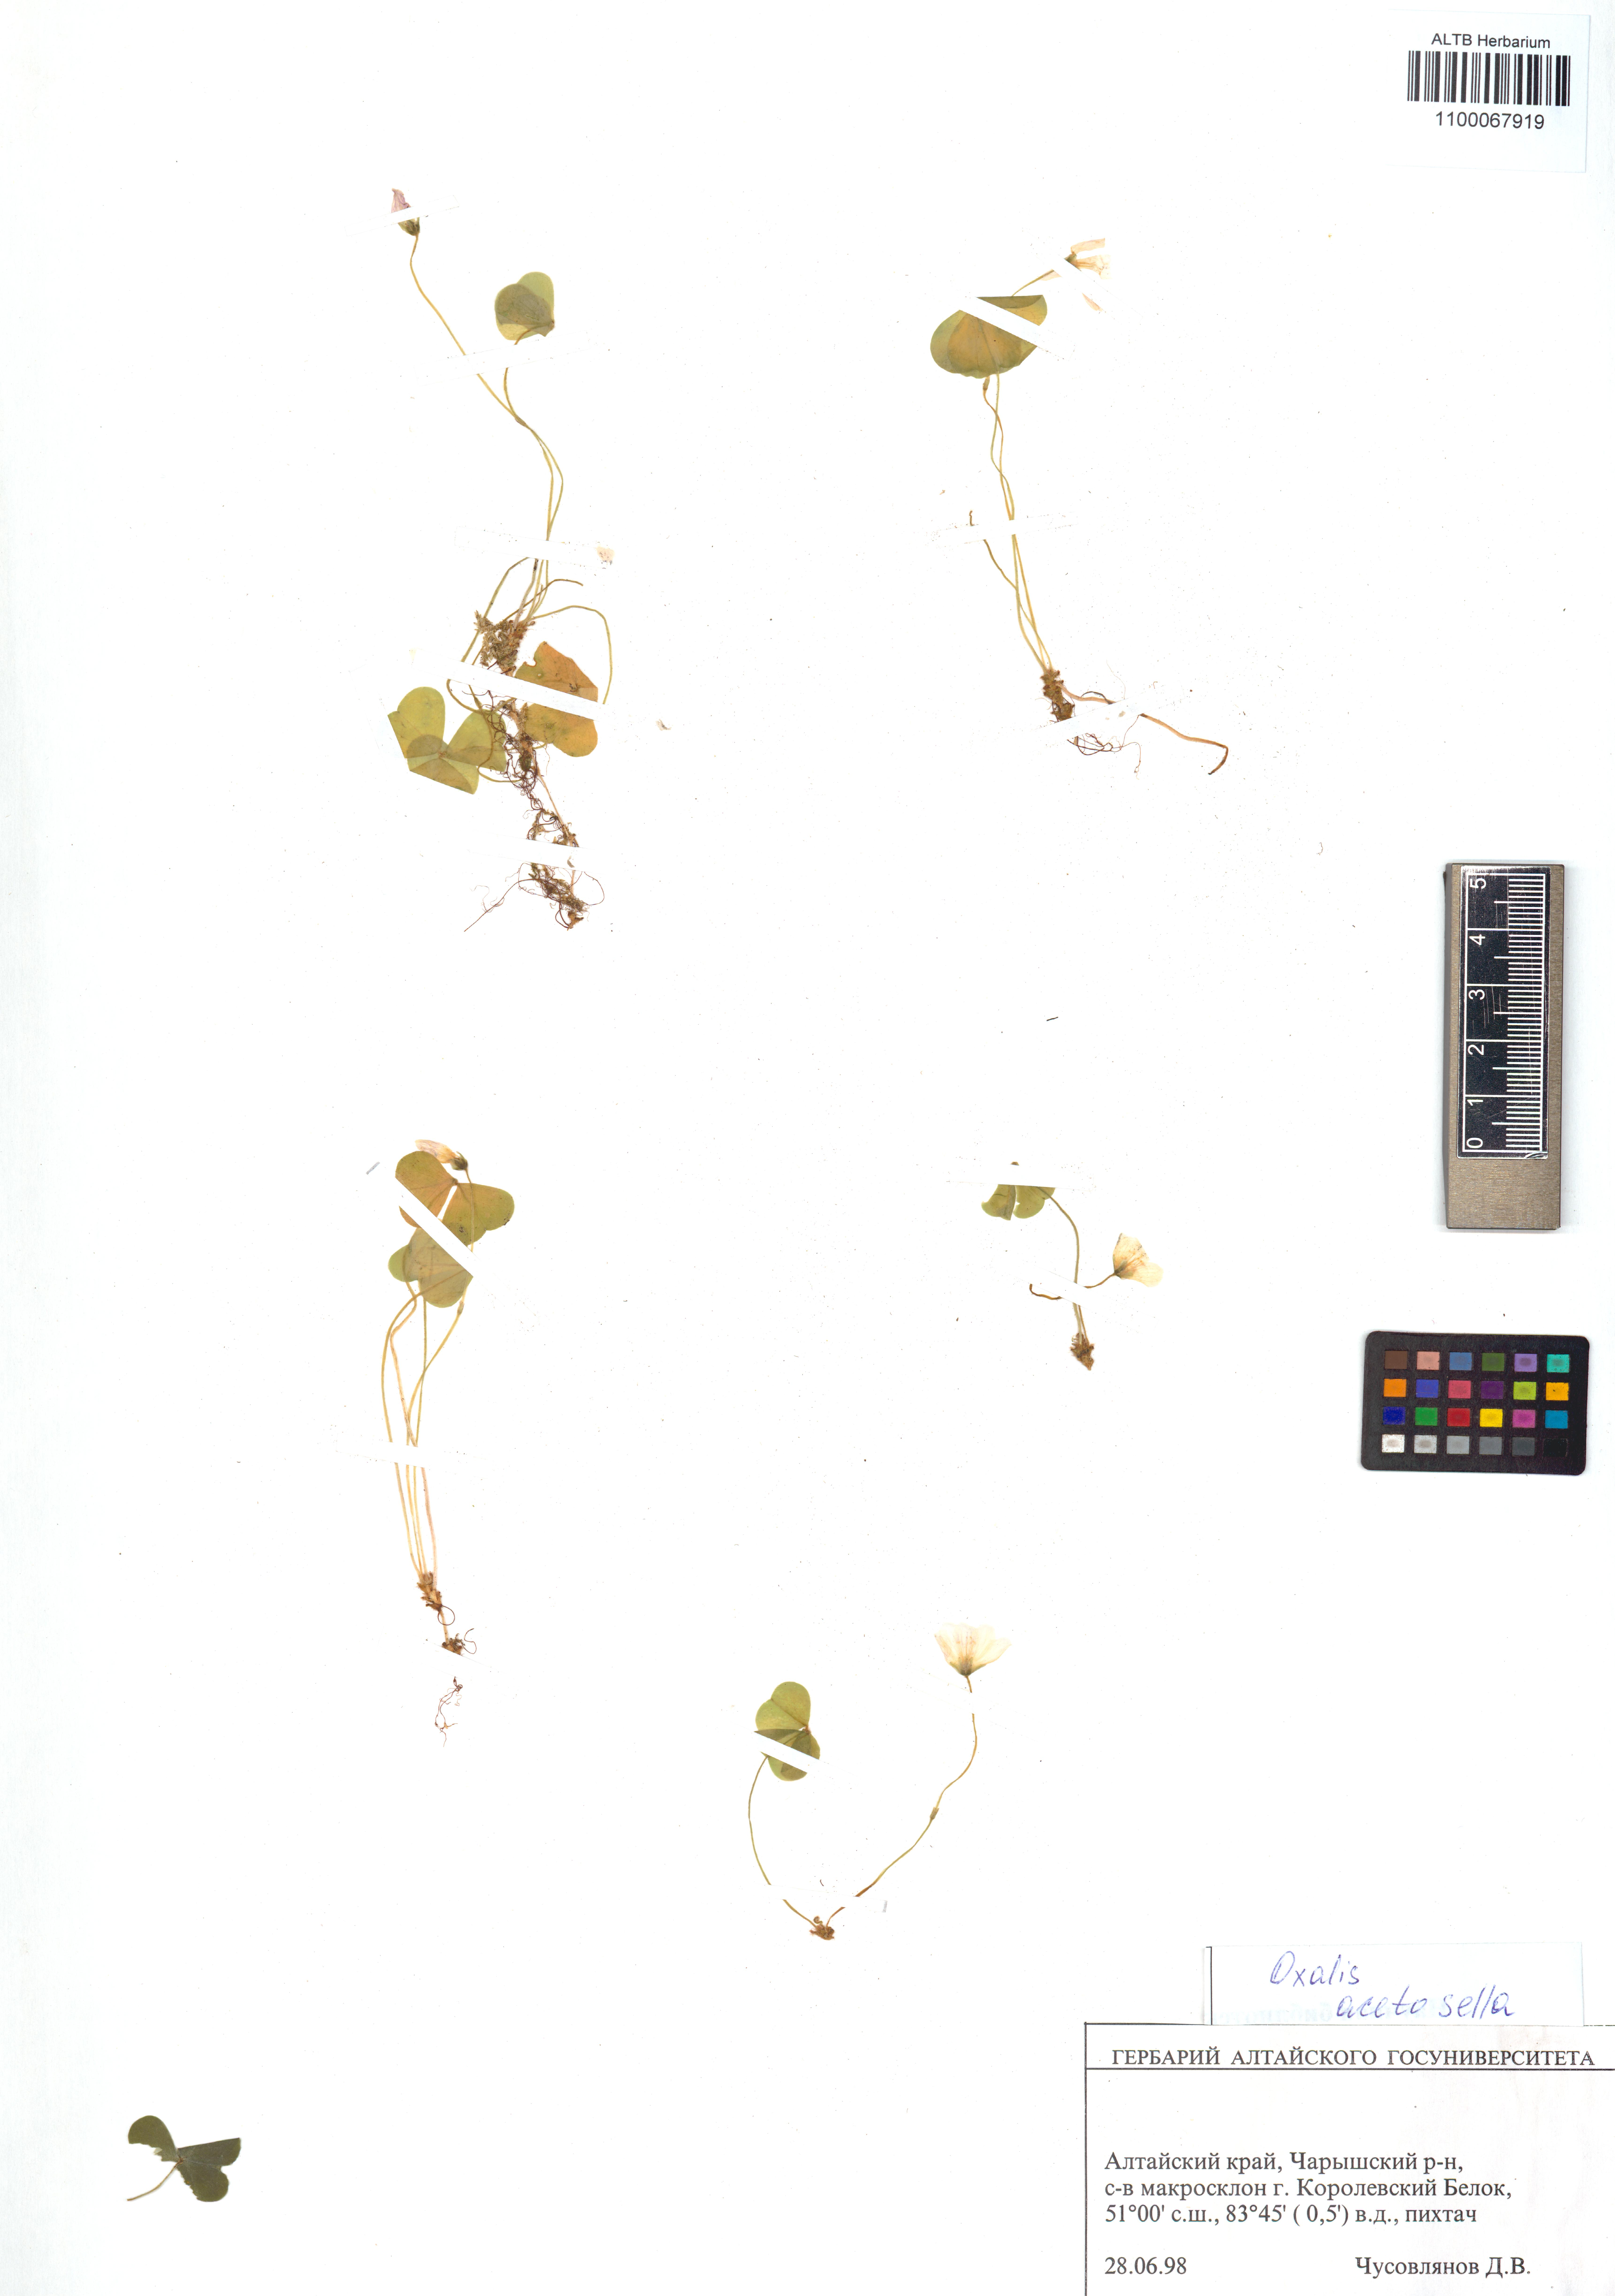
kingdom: Plantae
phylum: Tracheophyta
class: Magnoliopsida
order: Oxalidales
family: Oxalidaceae
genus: Oxalis
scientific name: Oxalis acetosella
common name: Wood-sorrel
